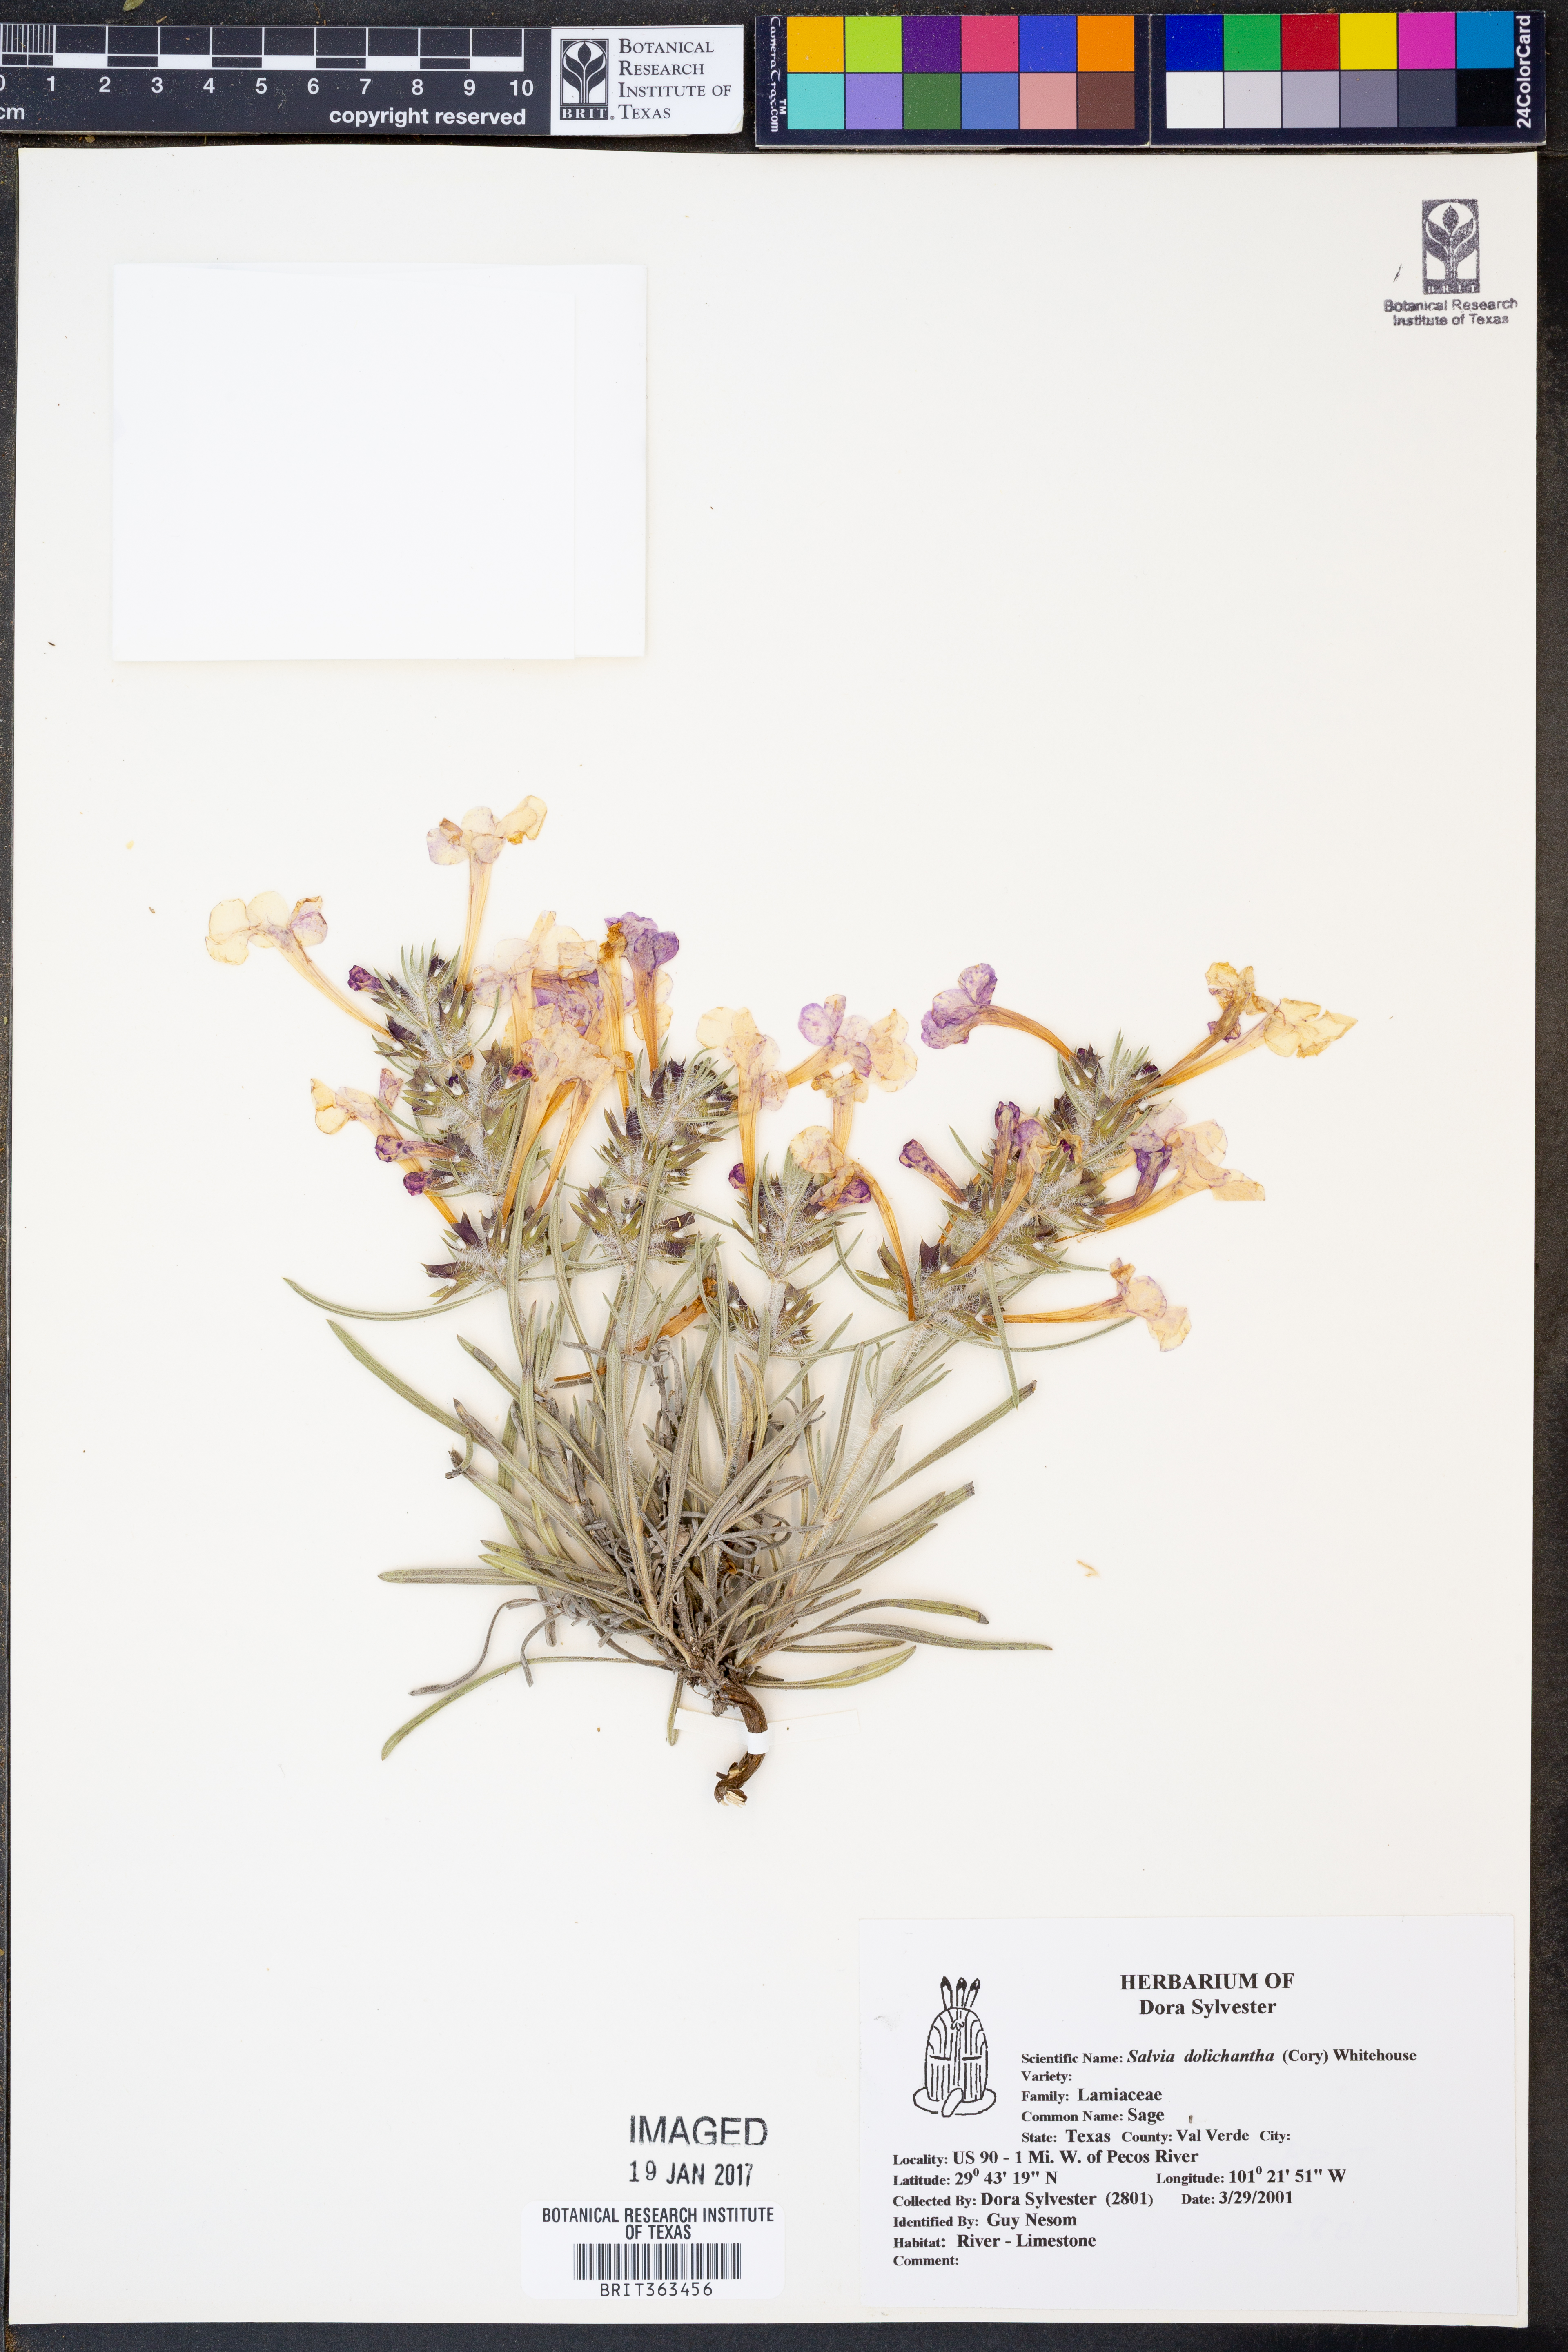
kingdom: Plantae
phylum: Tracheophyta
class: Magnoliopsida
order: Lamiales
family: Lamiaceae
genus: Salvia
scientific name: Salvia whitehousei
